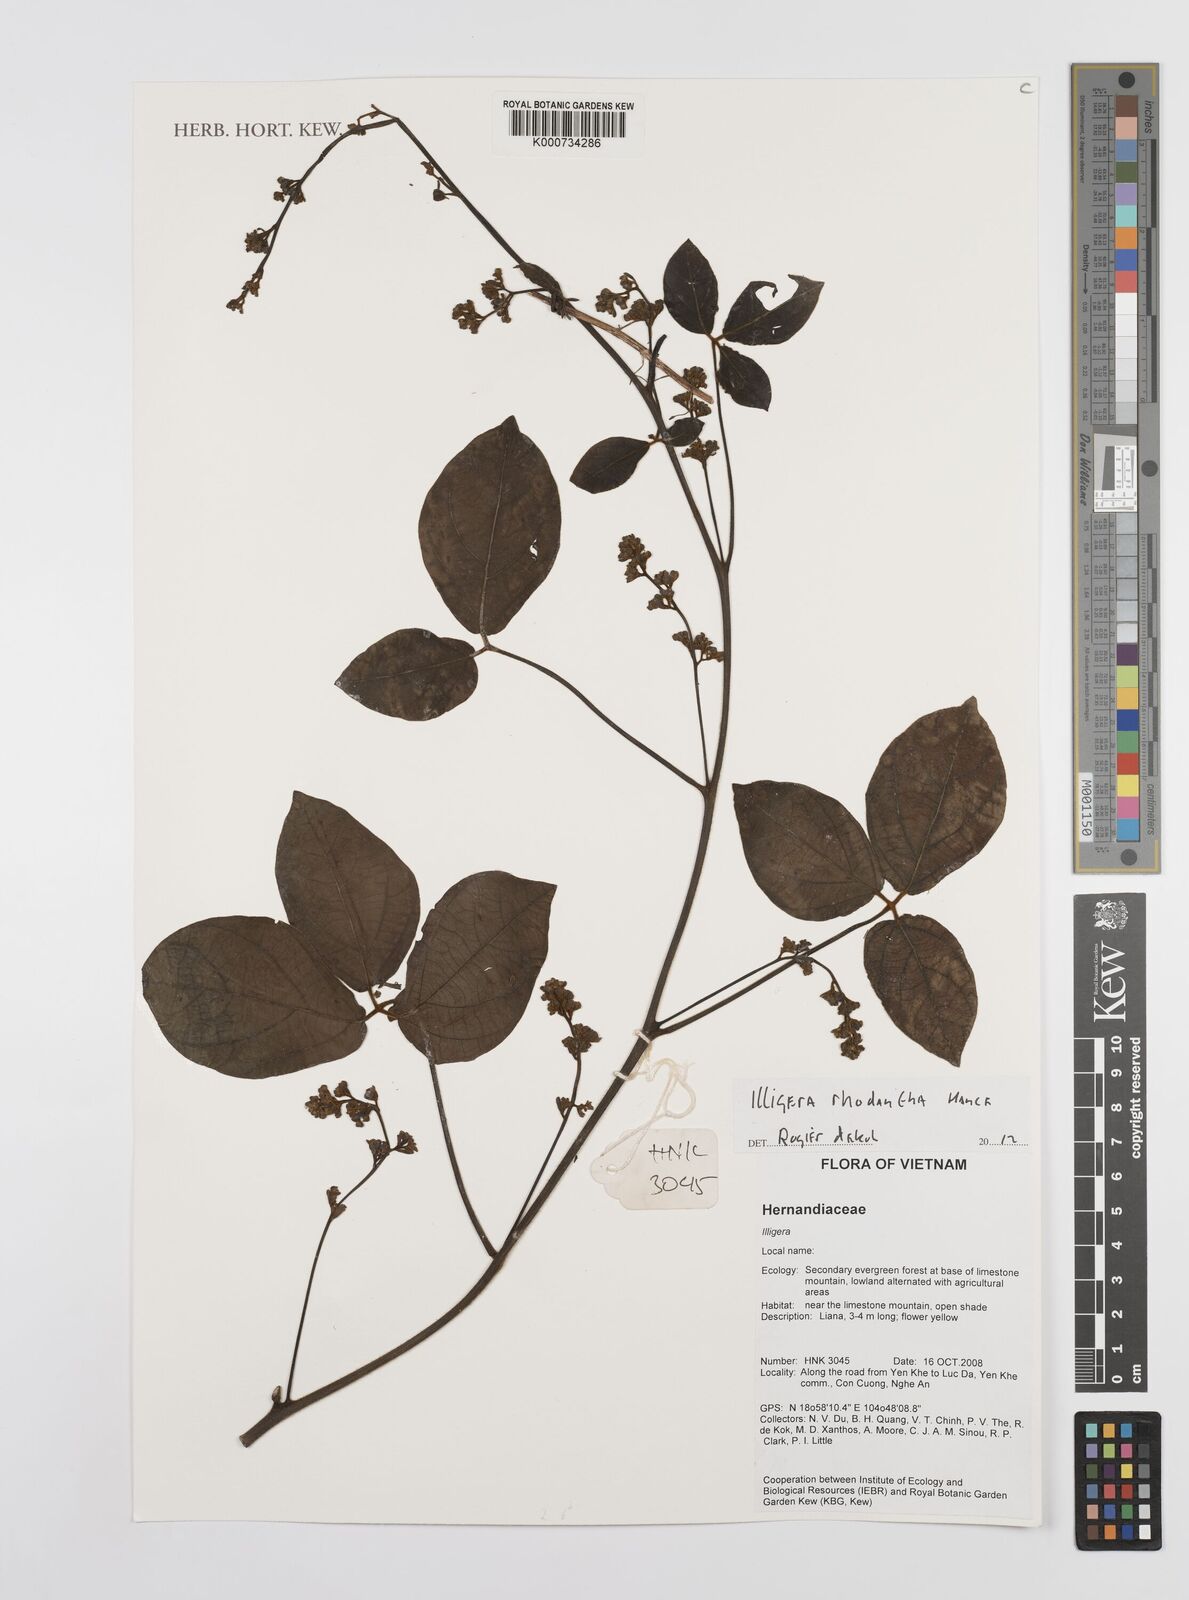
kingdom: Plantae
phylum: Tracheophyta
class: Magnoliopsida
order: Laurales
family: Hernandiaceae
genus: Illigera
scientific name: Illigera rhodantha
